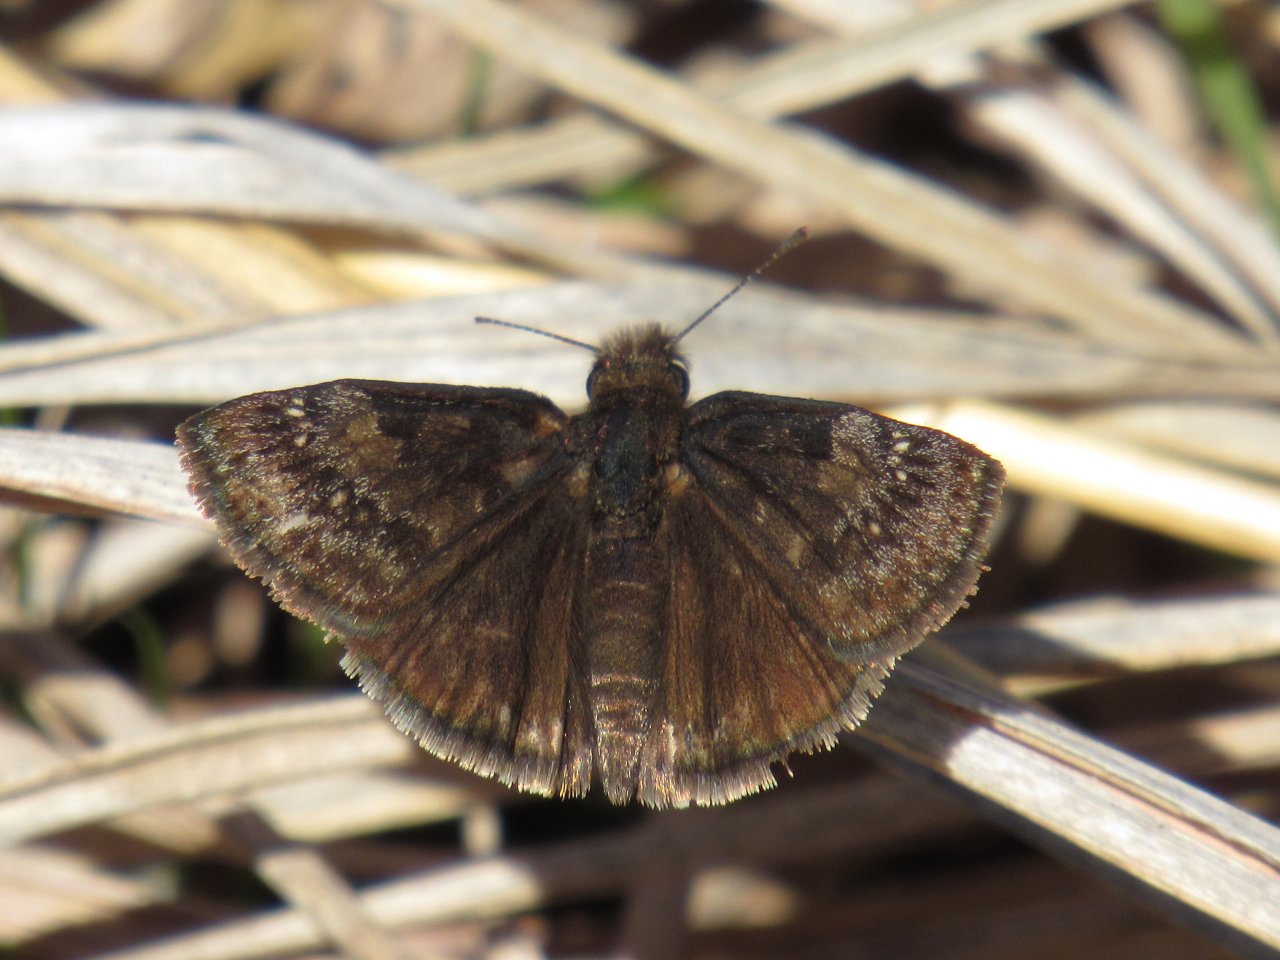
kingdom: Animalia
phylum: Arthropoda
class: Insecta
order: Lepidoptera
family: Hesperiidae
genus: Gesta
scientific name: Gesta
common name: Wild Indigo Duskywing
